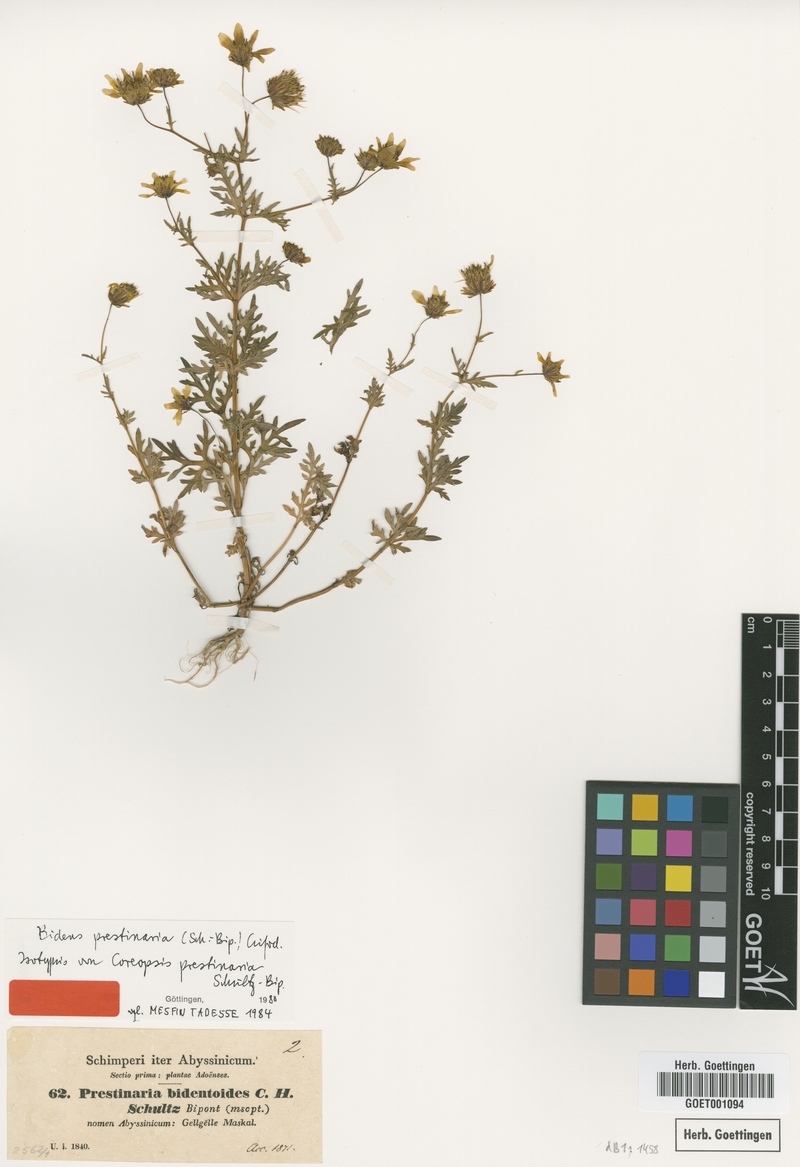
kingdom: Plantae
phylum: Tracheophyta
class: Magnoliopsida
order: Asterales
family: Asteraceae
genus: Bidens
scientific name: Bidens prestinaria
